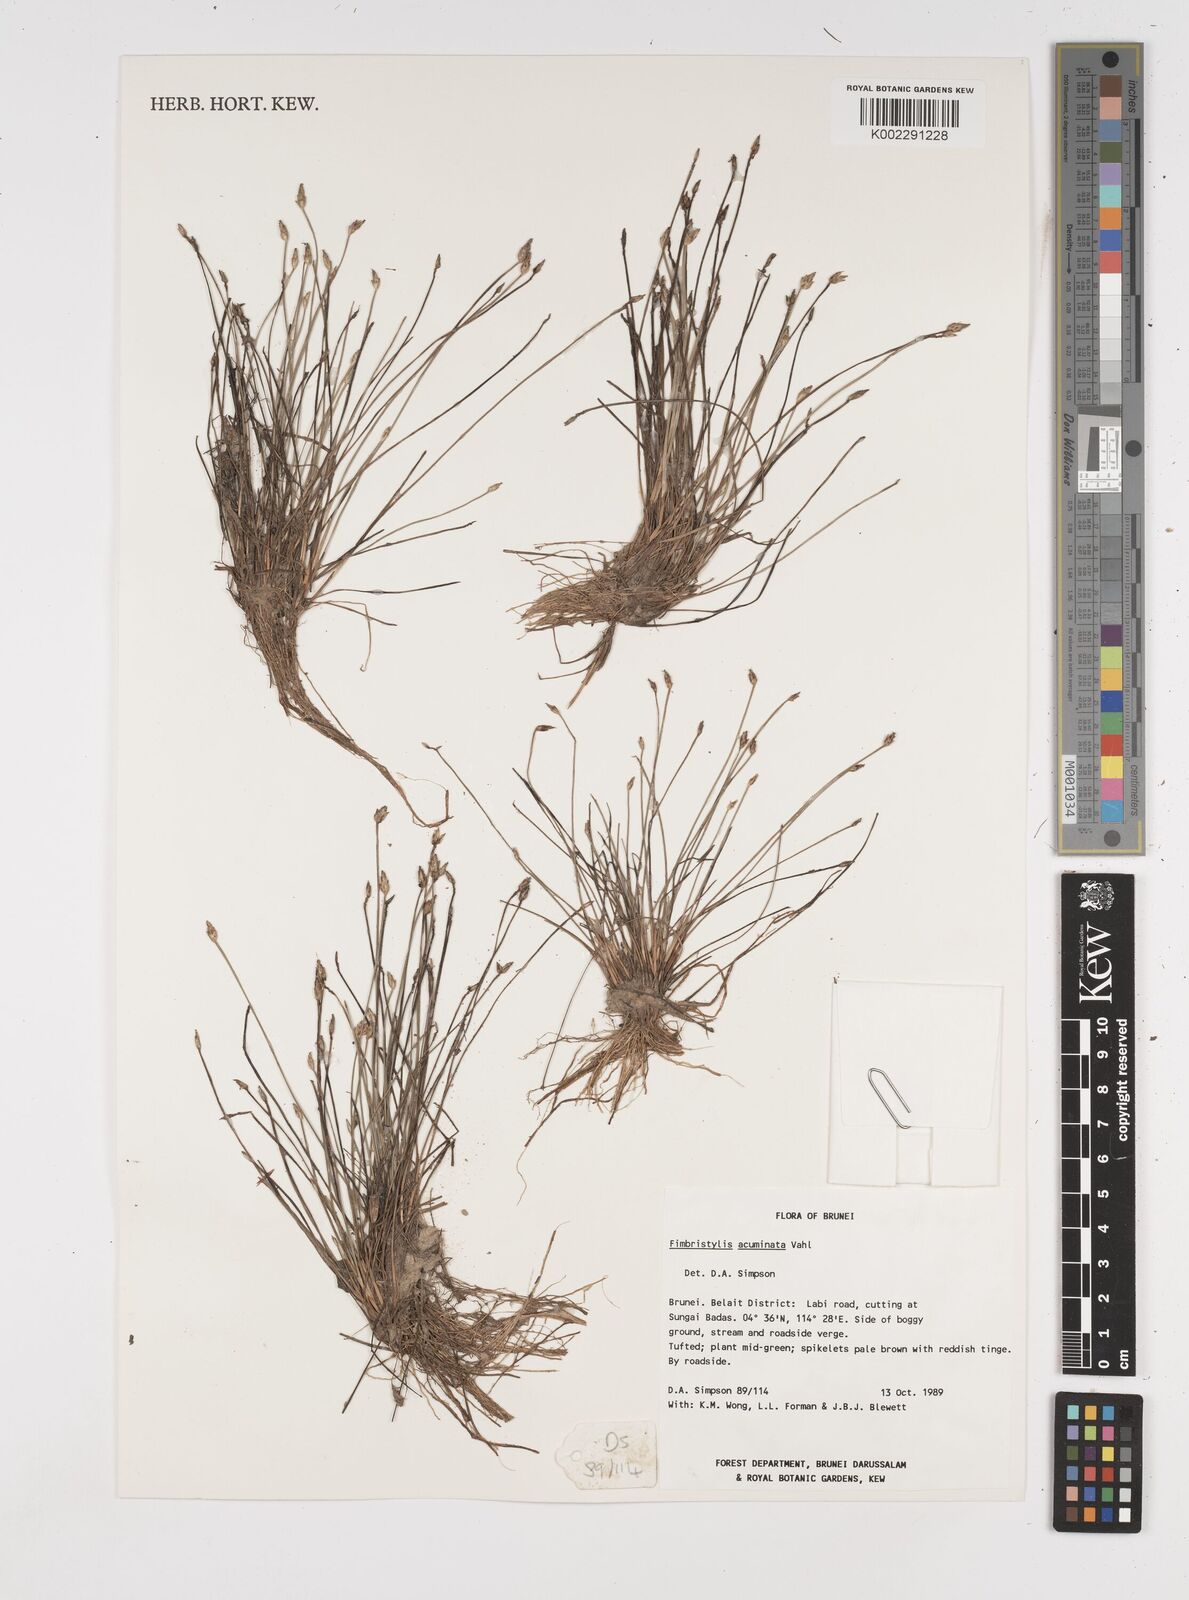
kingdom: Plantae
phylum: Tracheophyta
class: Liliopsida
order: Poales
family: Cyperaceae
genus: Fimbristylis
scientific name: Fimbristylis acuminata
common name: Pointed fimbristylis
